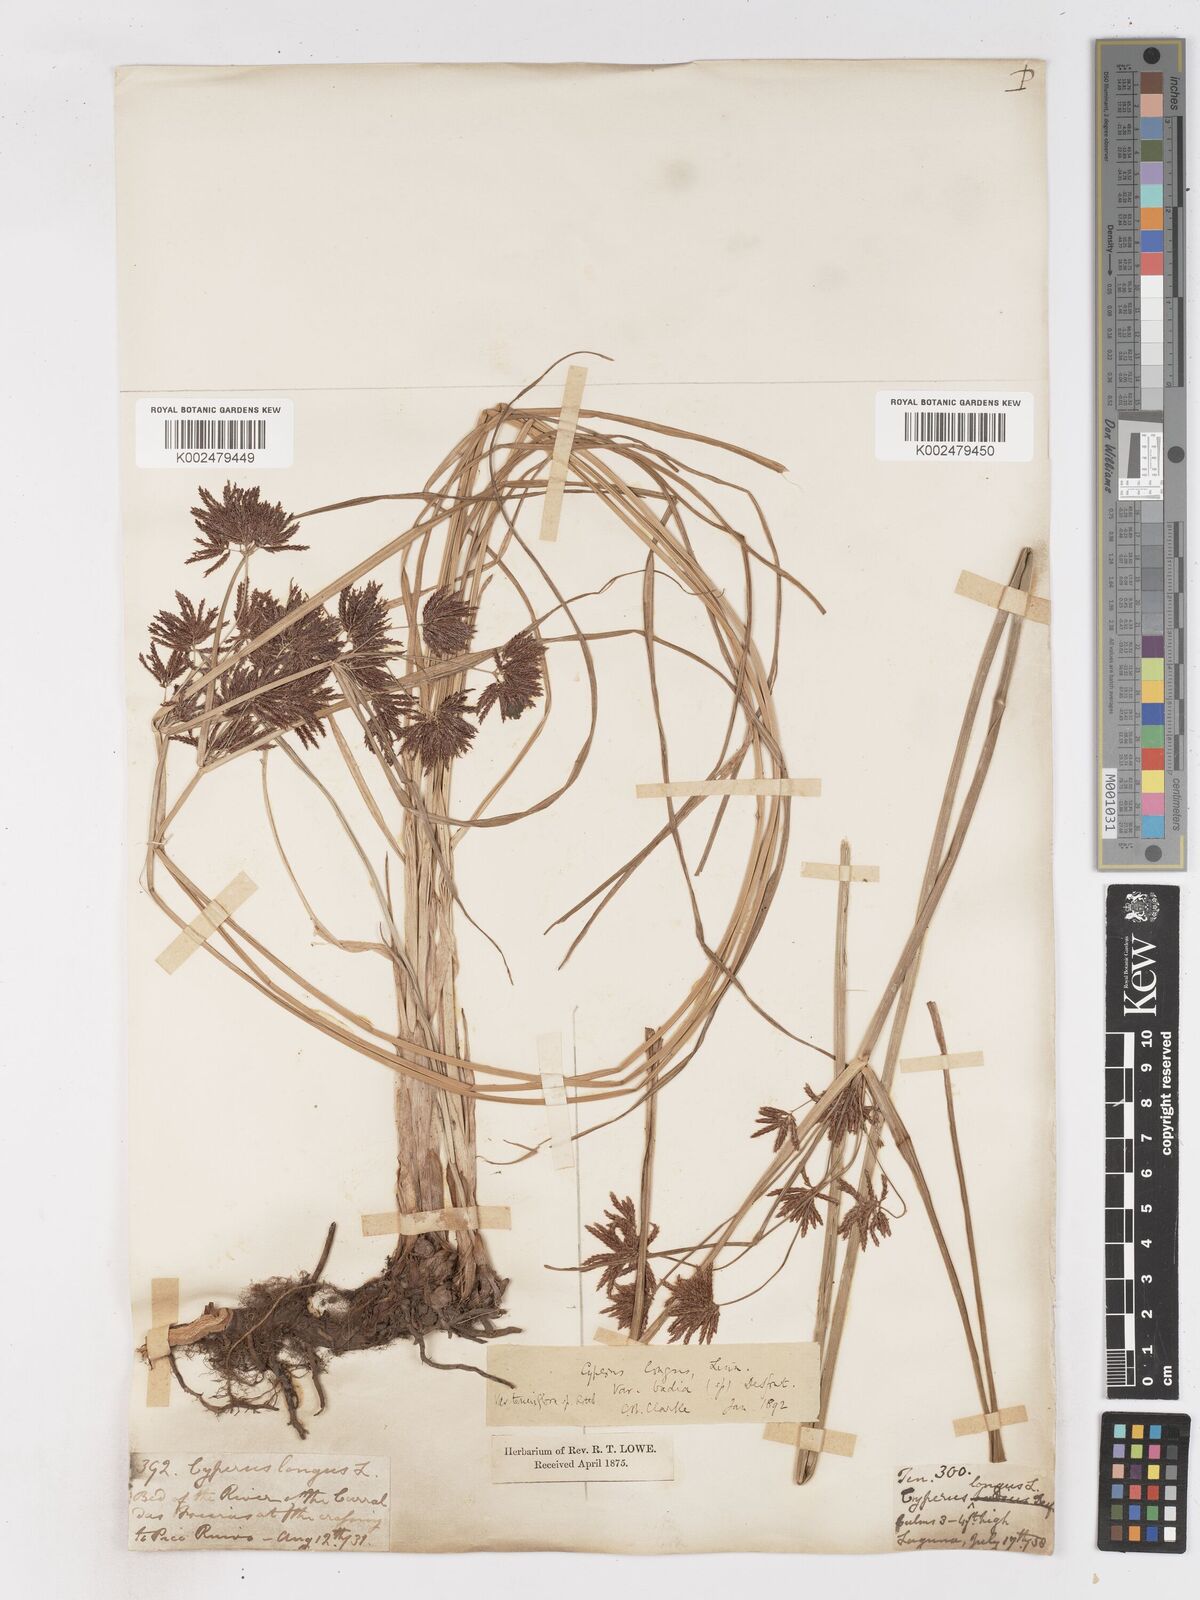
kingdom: Plantae
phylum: Tracheophyta
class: Liliopsida
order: Poales
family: Cyperaceae
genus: Cyperus
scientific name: Cyperus longus
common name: Galingale
